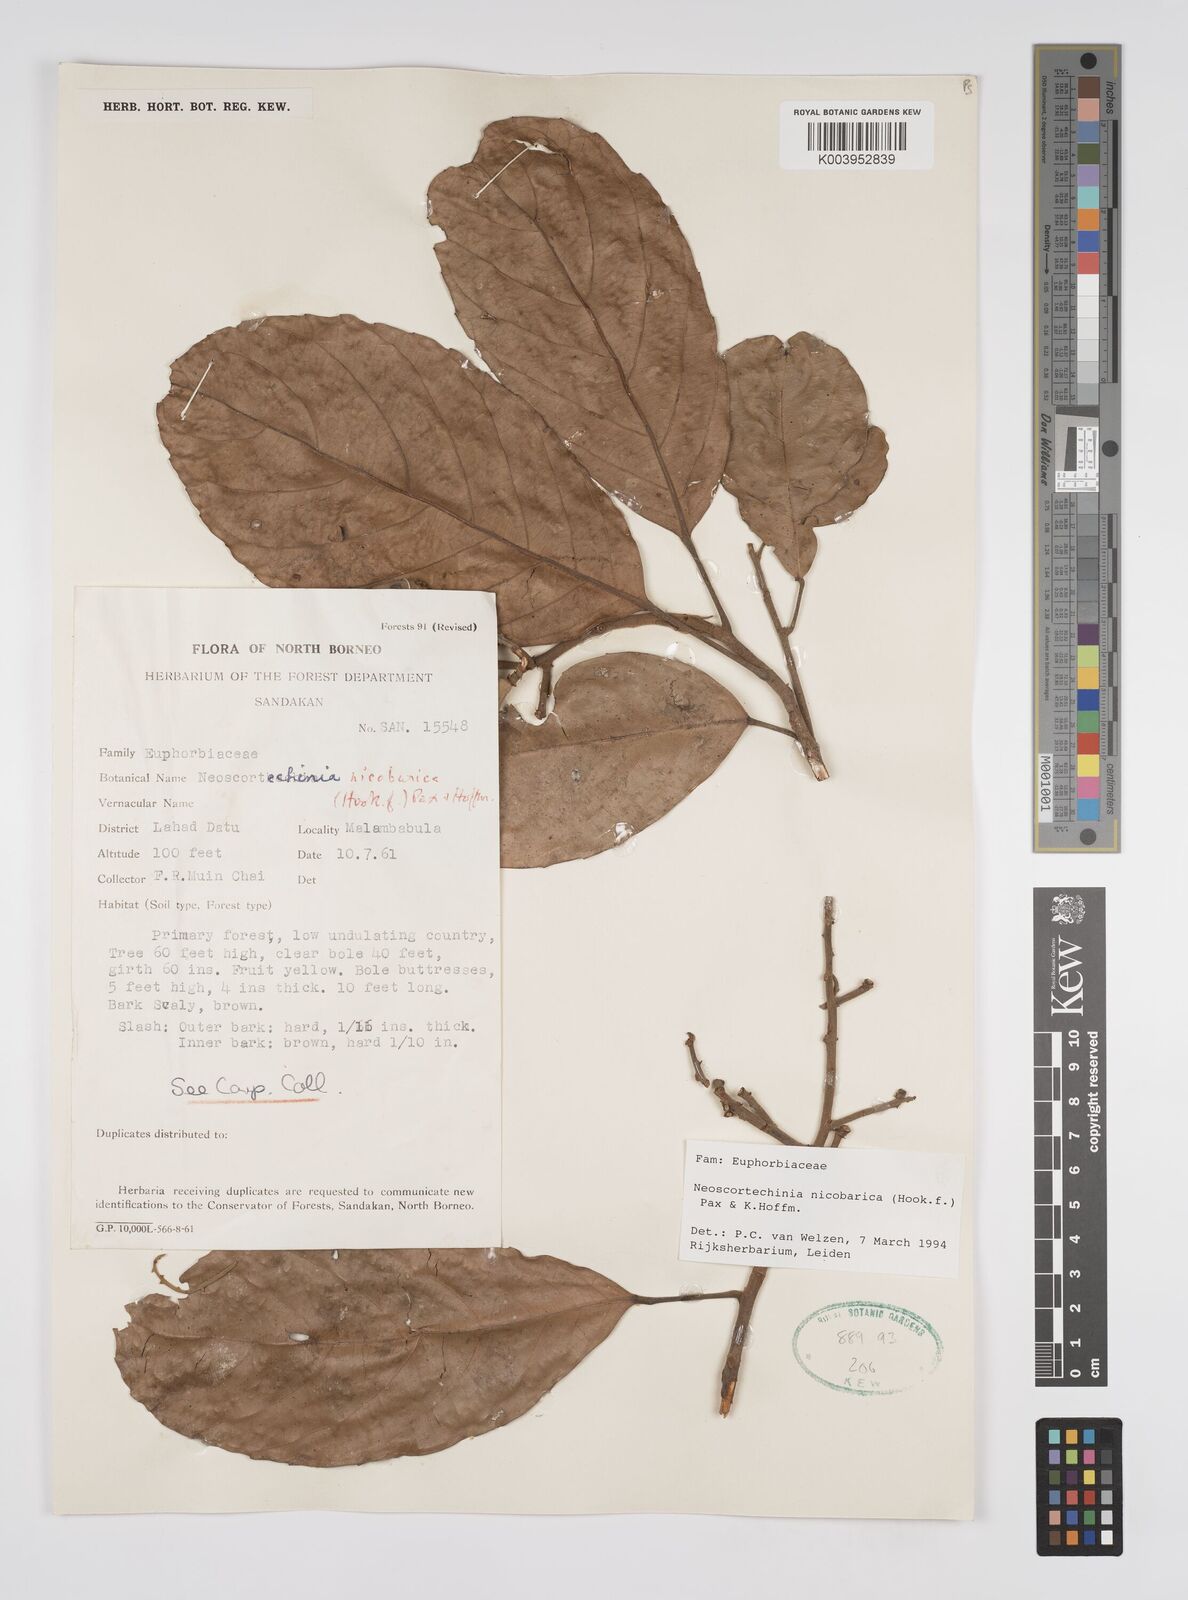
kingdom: Plantae
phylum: Tracheophyta
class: Magnoliopsida
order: Malpighiales
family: Euphorbiaceae
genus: Neoscortechinia
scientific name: Neoscortechinia nicobarica
